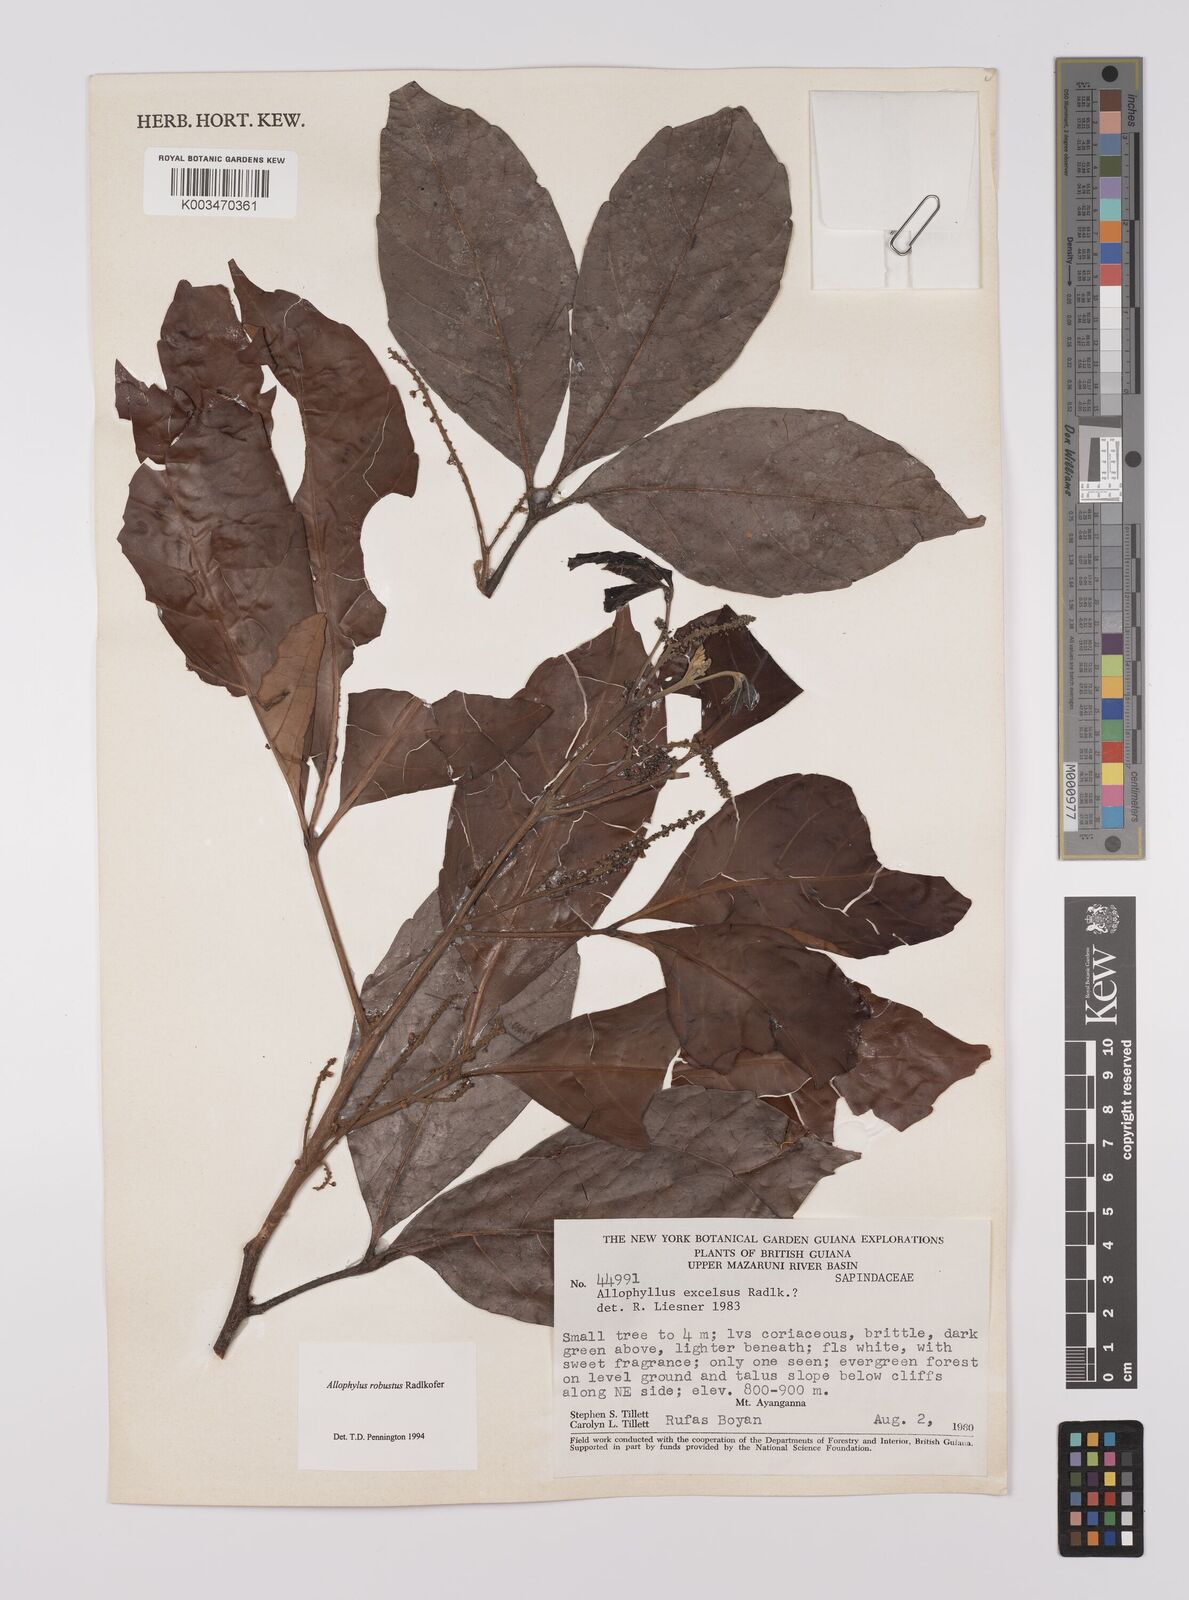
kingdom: Plantae
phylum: Tracheophyta
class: Magnoliopsida
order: Sapindales
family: Sapindaceae
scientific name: Sapindaceae
